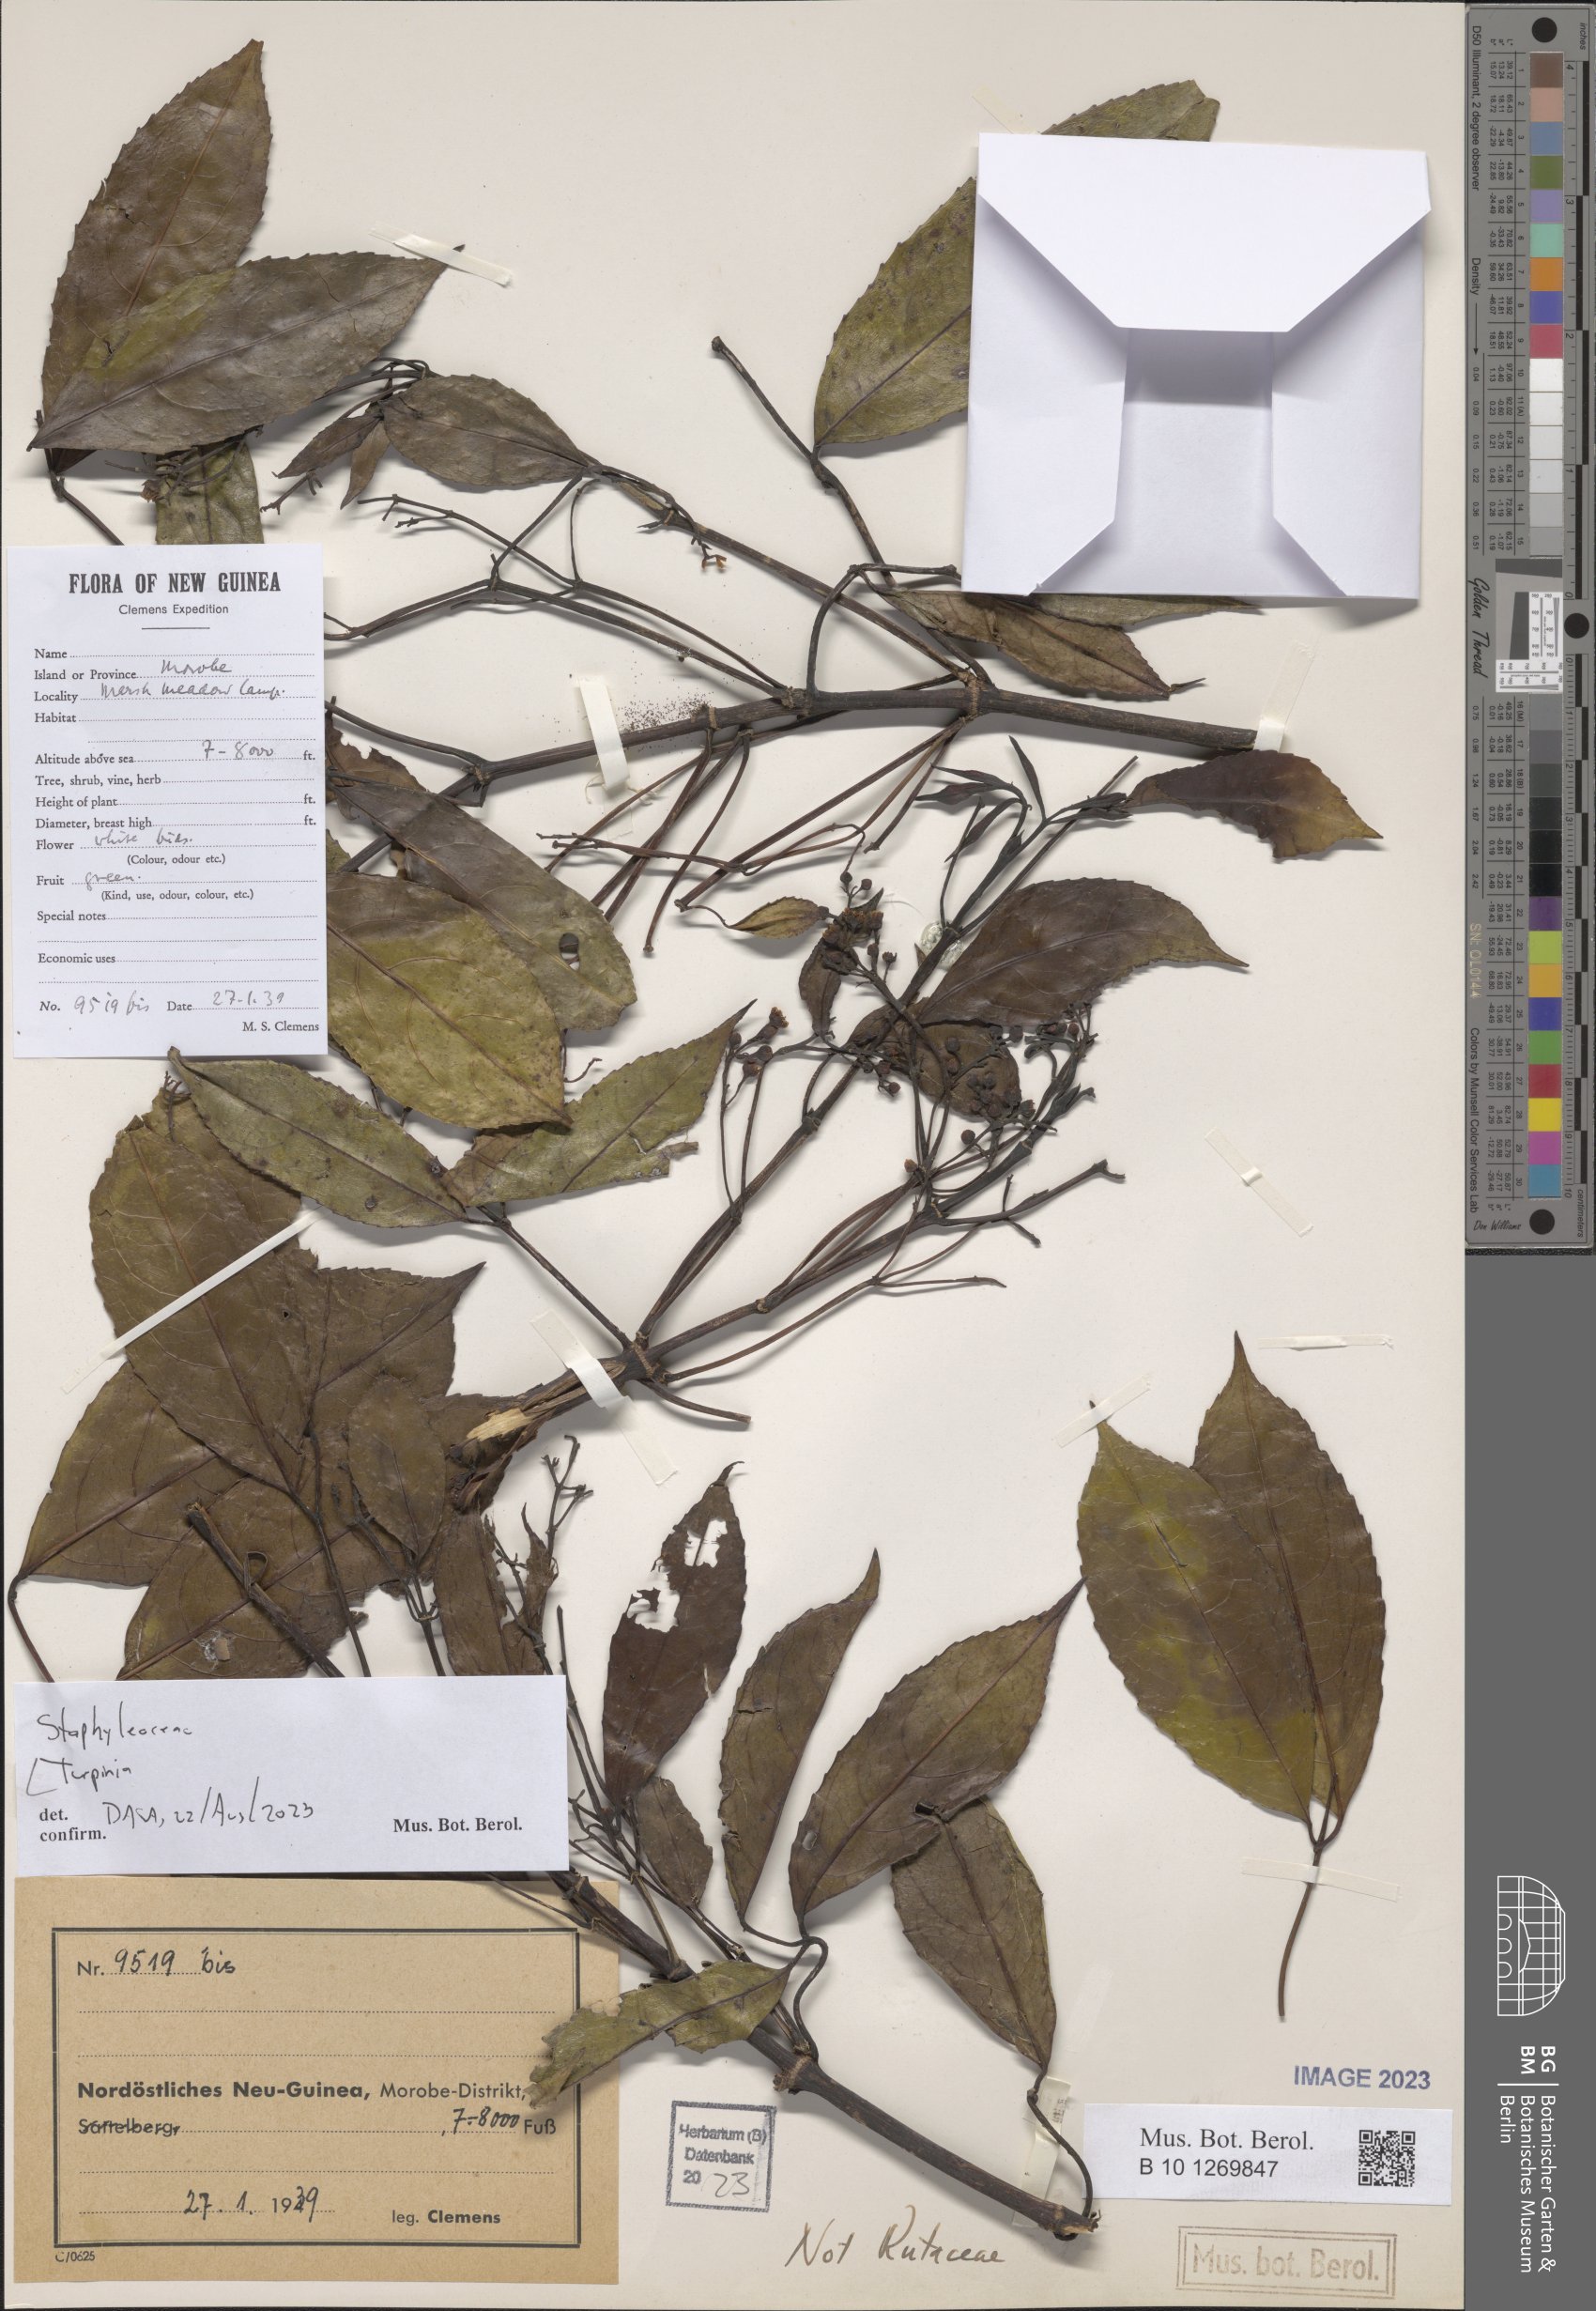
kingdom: Plantae
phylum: Tracheophyta
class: Magnoliopsida
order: Crossosomatales
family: Staphyleaceae
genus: Turpinia
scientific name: Turpinia
